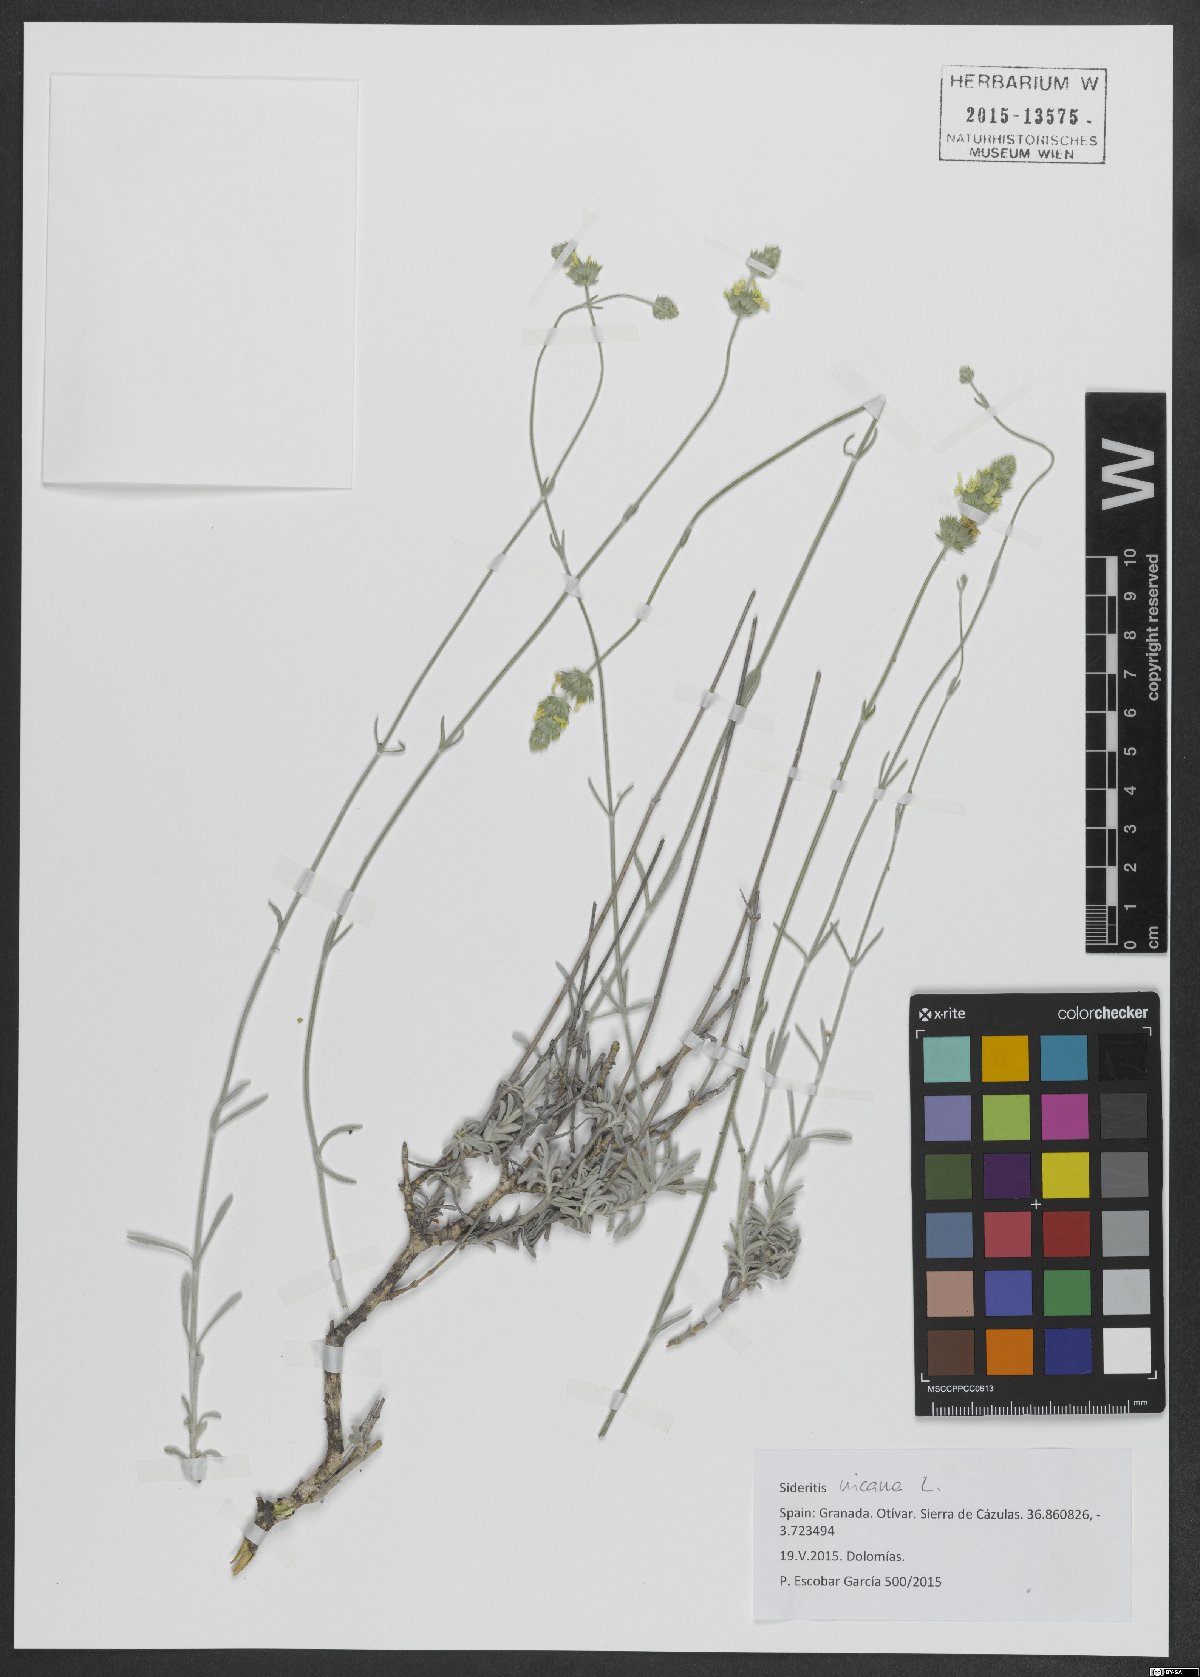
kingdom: Plantae
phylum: Tracheophyta
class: Magnoliopsida
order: Lamiales
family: Lamiaceae
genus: Sideritis
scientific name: Sideritis incana
